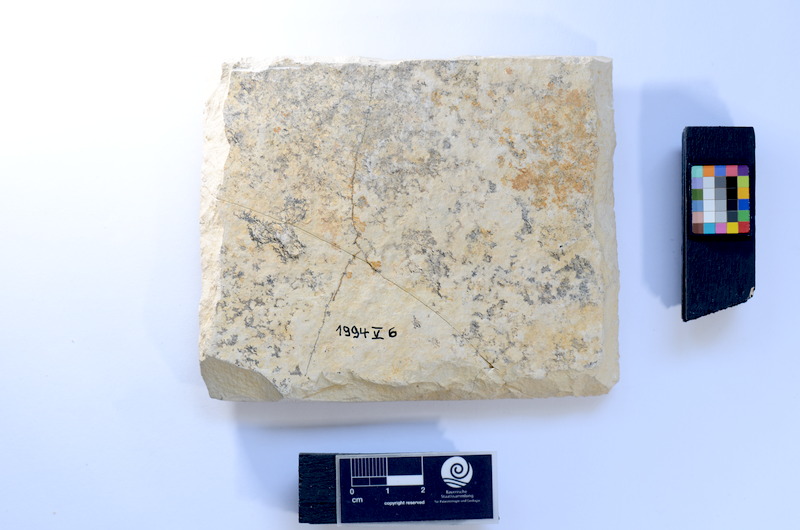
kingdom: Animalia
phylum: Chordata
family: Ascalaboidae
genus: Tharsis
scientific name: Tharsis dubius
